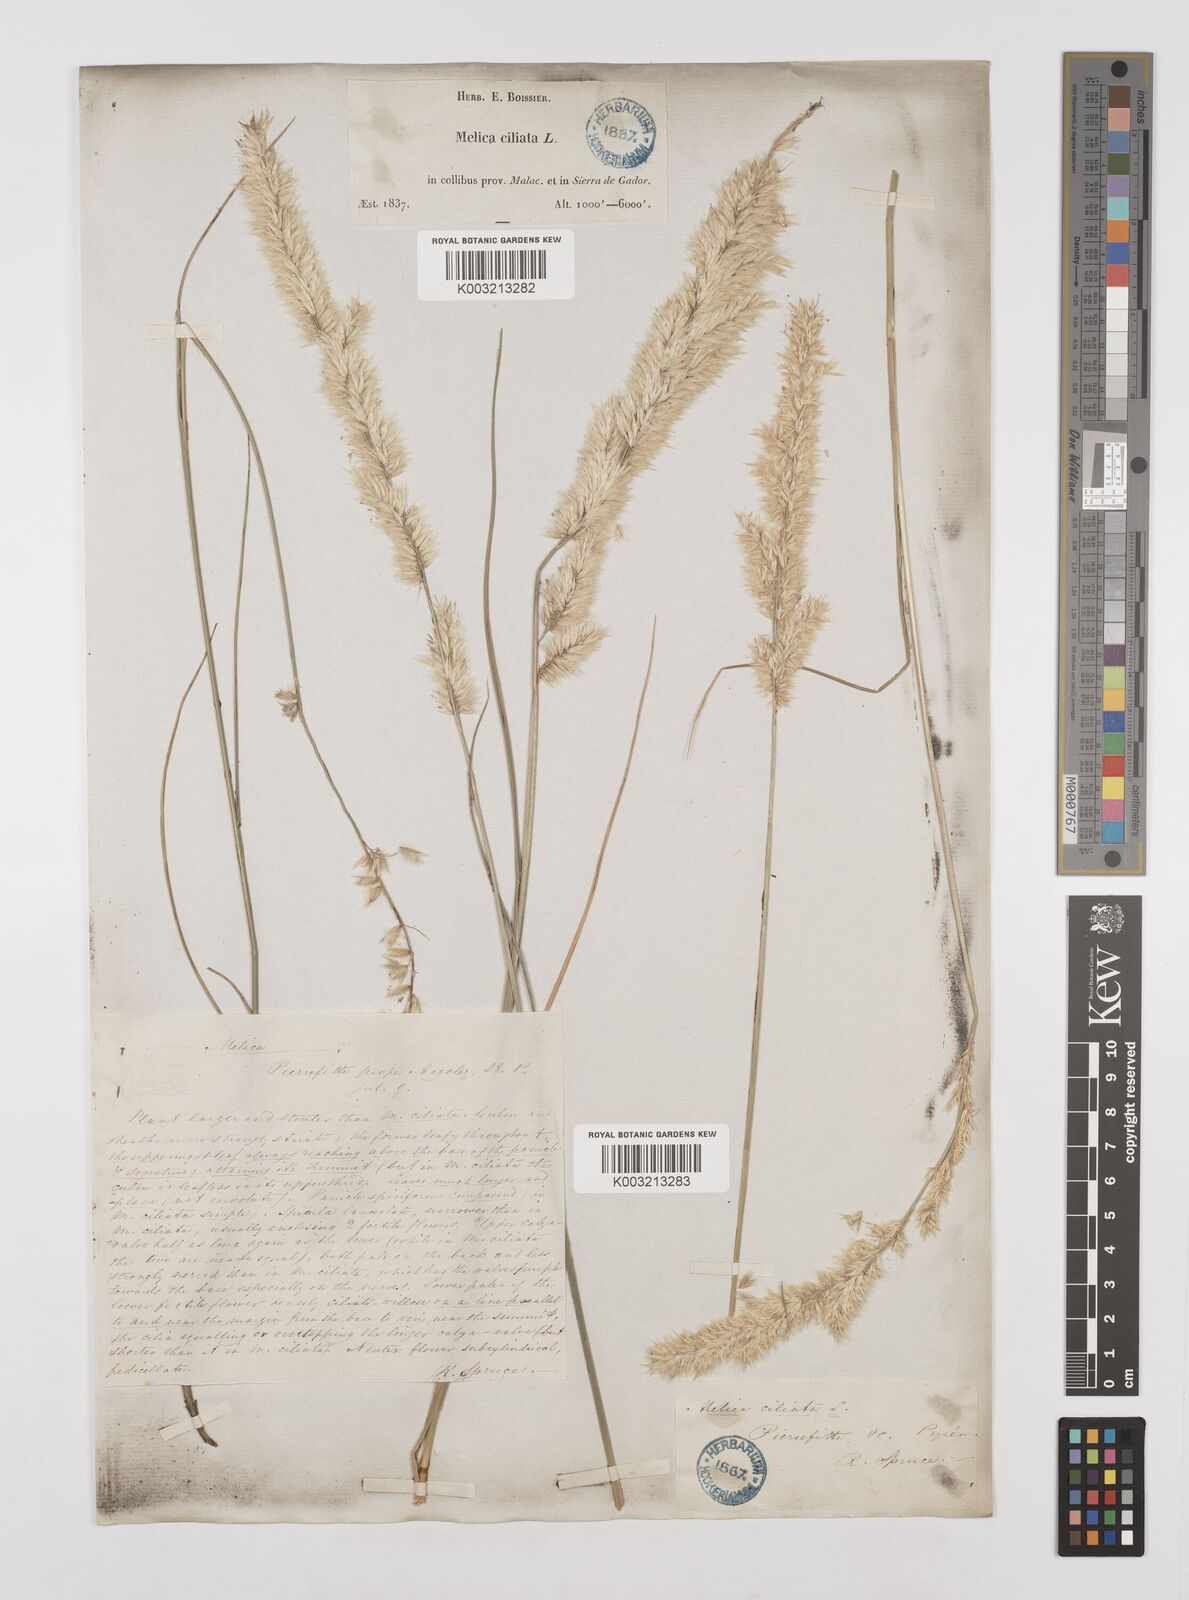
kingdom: Plantae
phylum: Tracheophyta
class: Liliopsida
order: Poales
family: Poaceae
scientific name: Poaceae
